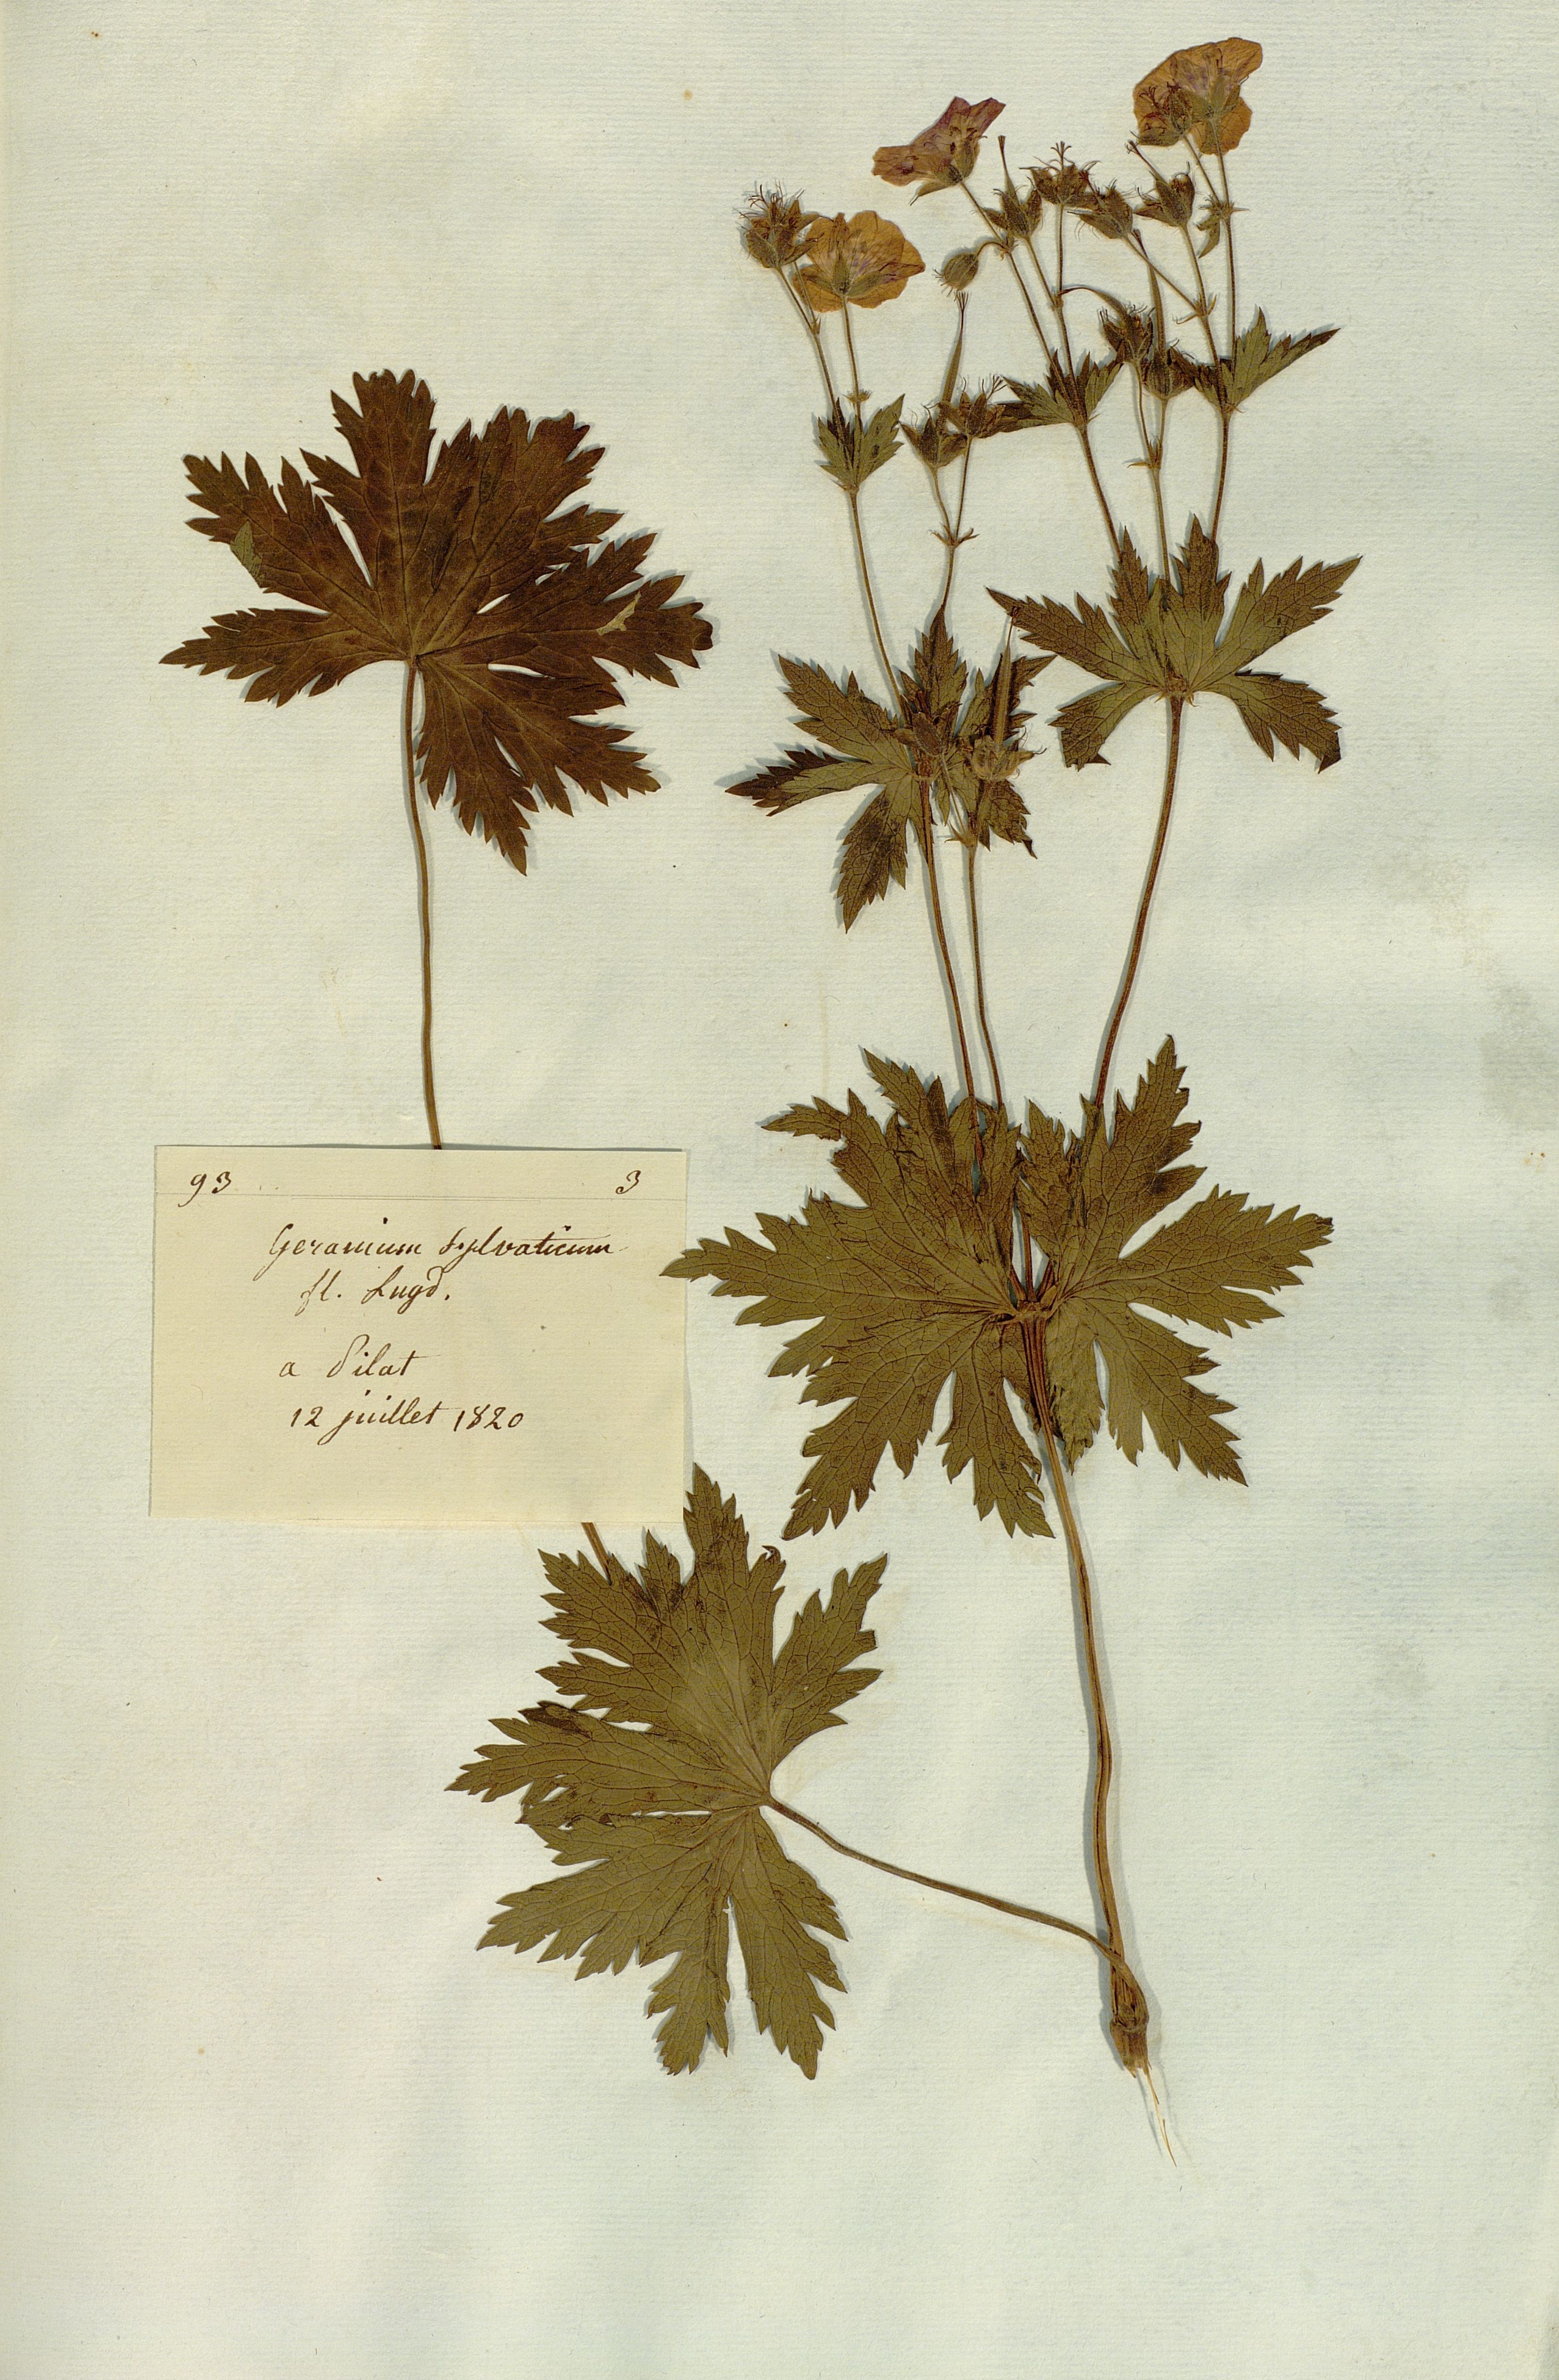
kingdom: Plantae
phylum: Tracheophyta
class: Magnoliopsida
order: Geraniales
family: Geraniaceae
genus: Geranium
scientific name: Geranium sylvaticum
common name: Wood crane's-bill
